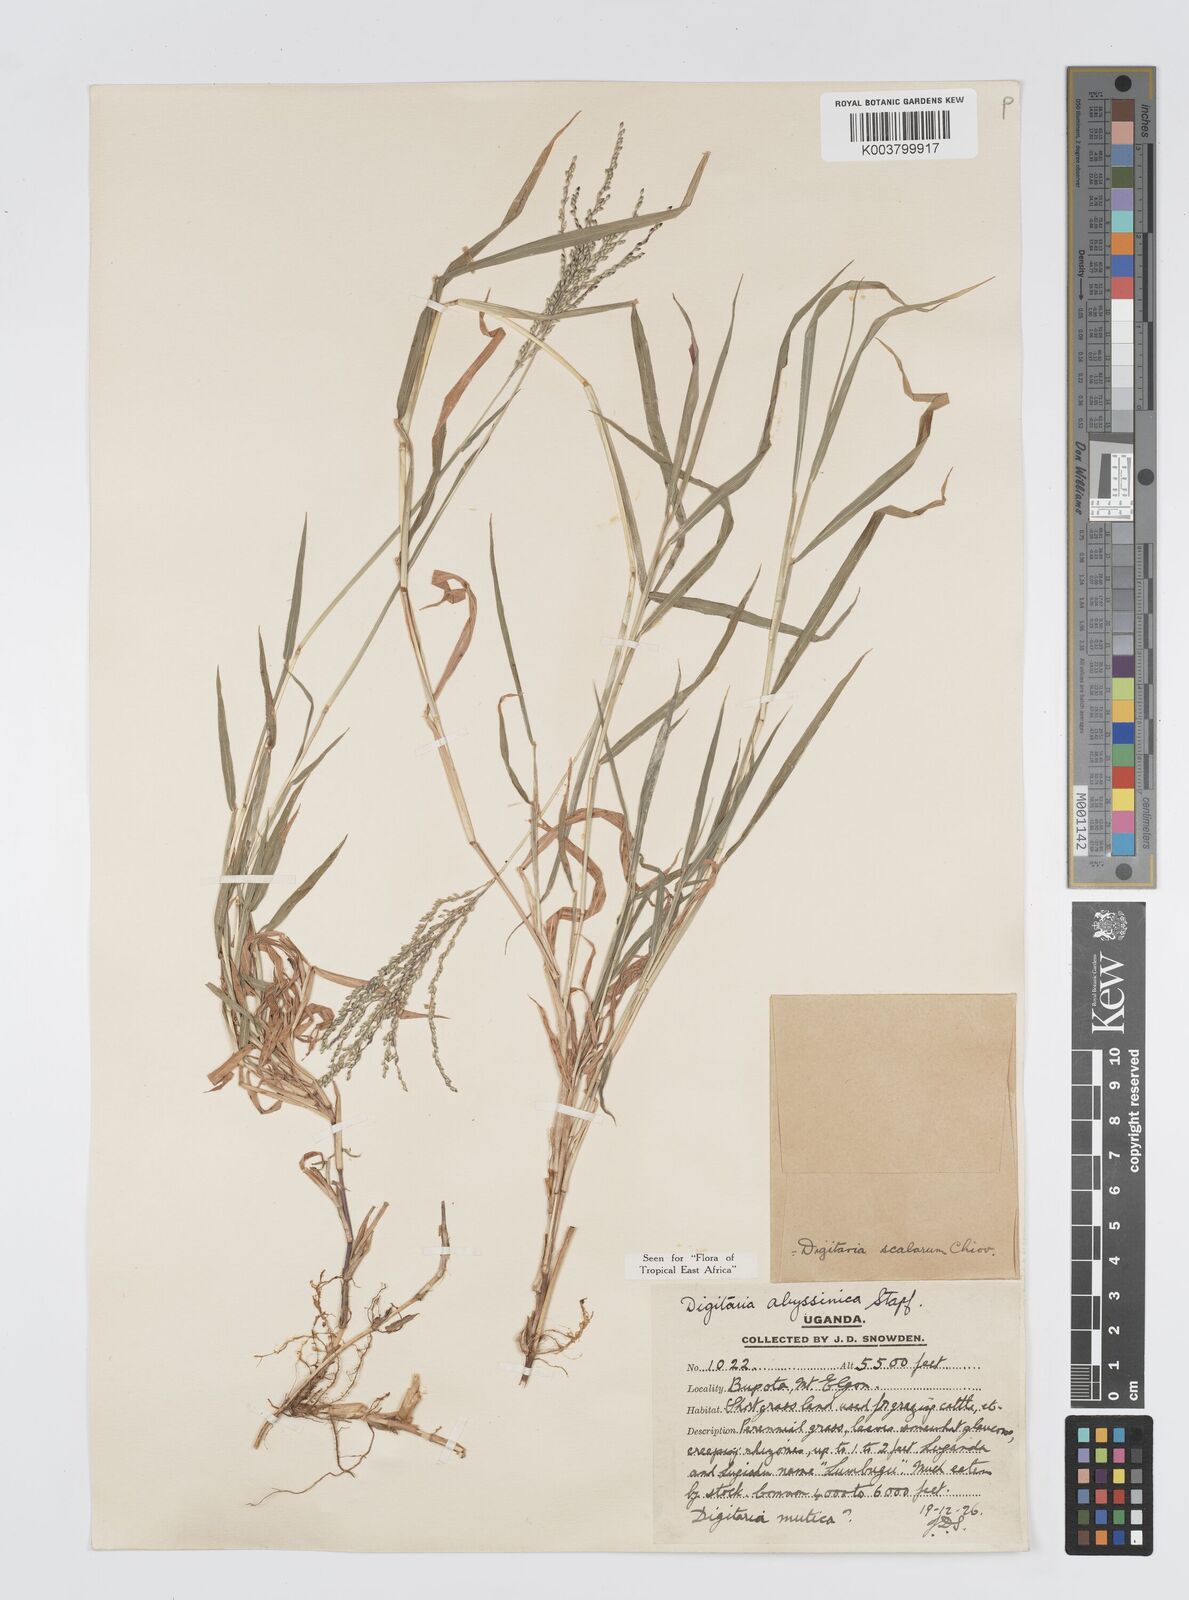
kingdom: Plantae
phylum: Tracheophyta
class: Liliopsida
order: Poales
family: Poaceae
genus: Digitaria
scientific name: Digitaria abyssinica
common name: African couchgrass
